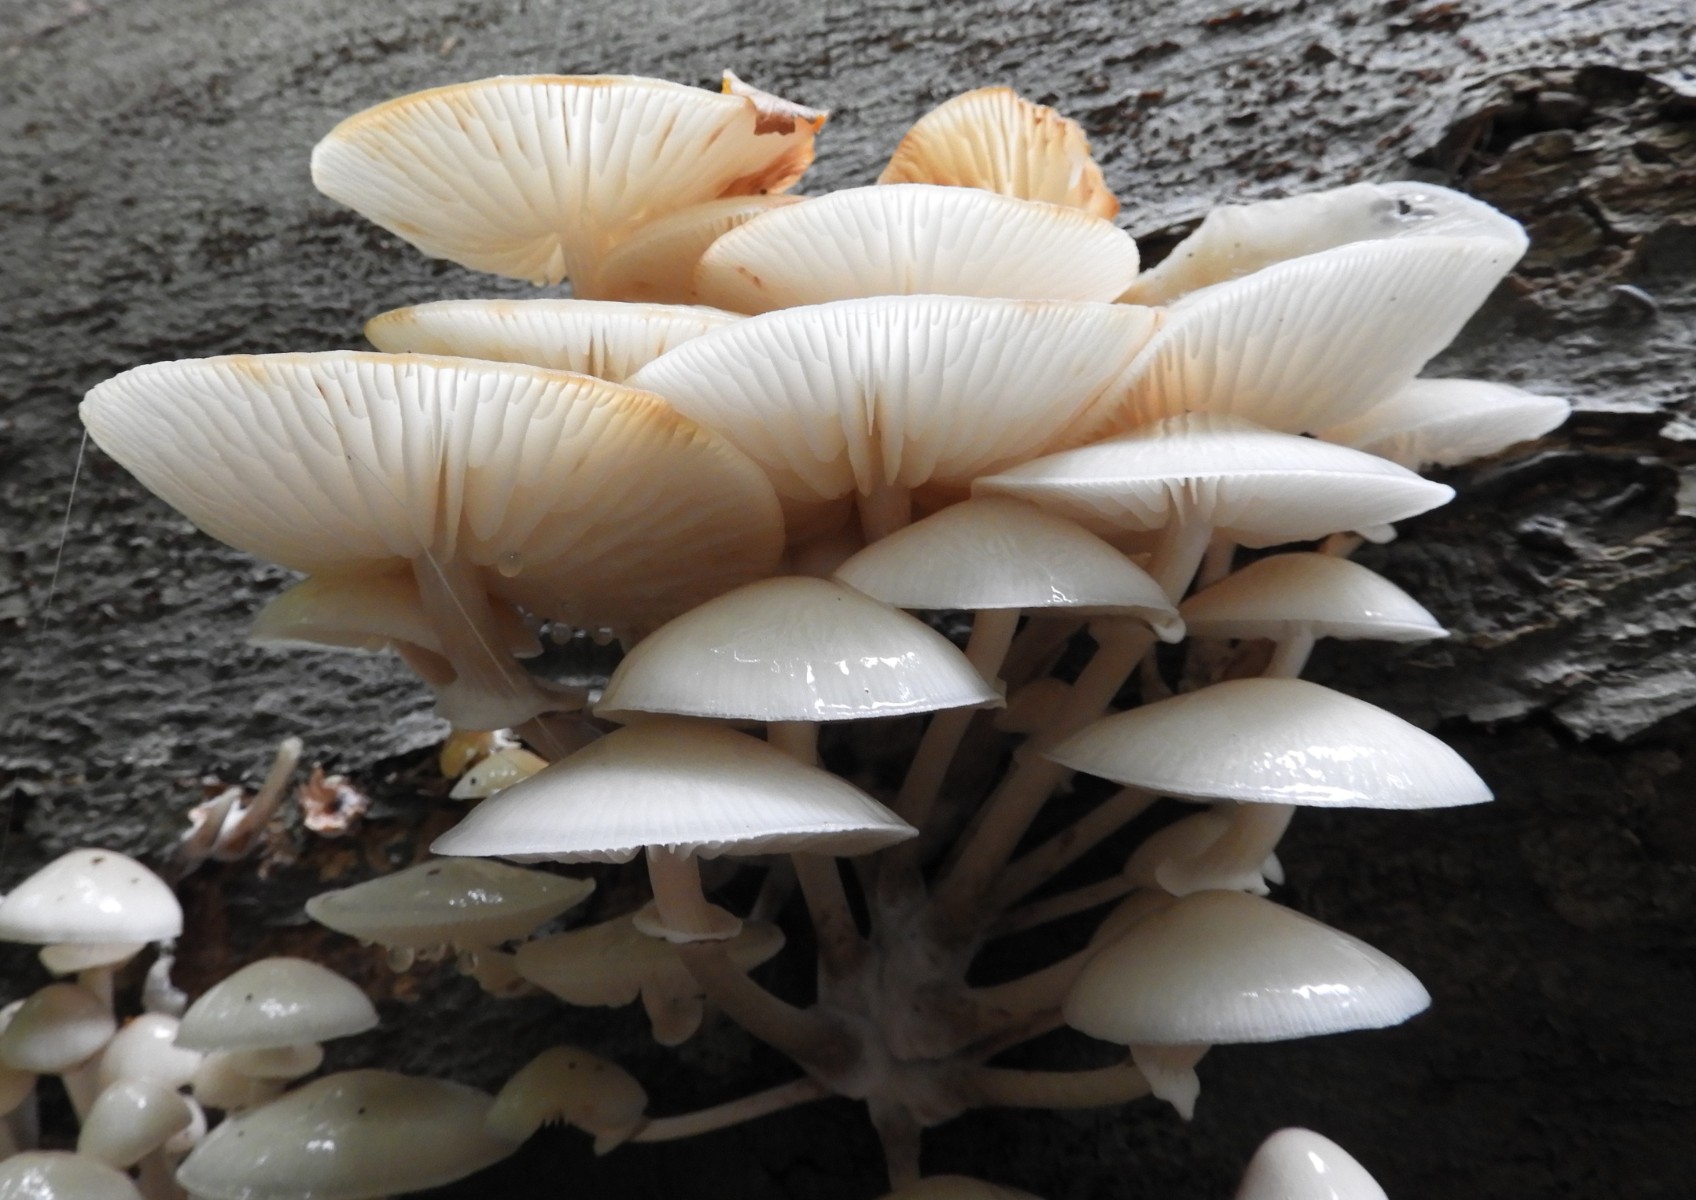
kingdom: Fungi
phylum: Basidiomycota
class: Agaricomycetes
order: Agaricales
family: Physalacriaceae
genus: Mucidula
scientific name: Mucidula mucida
